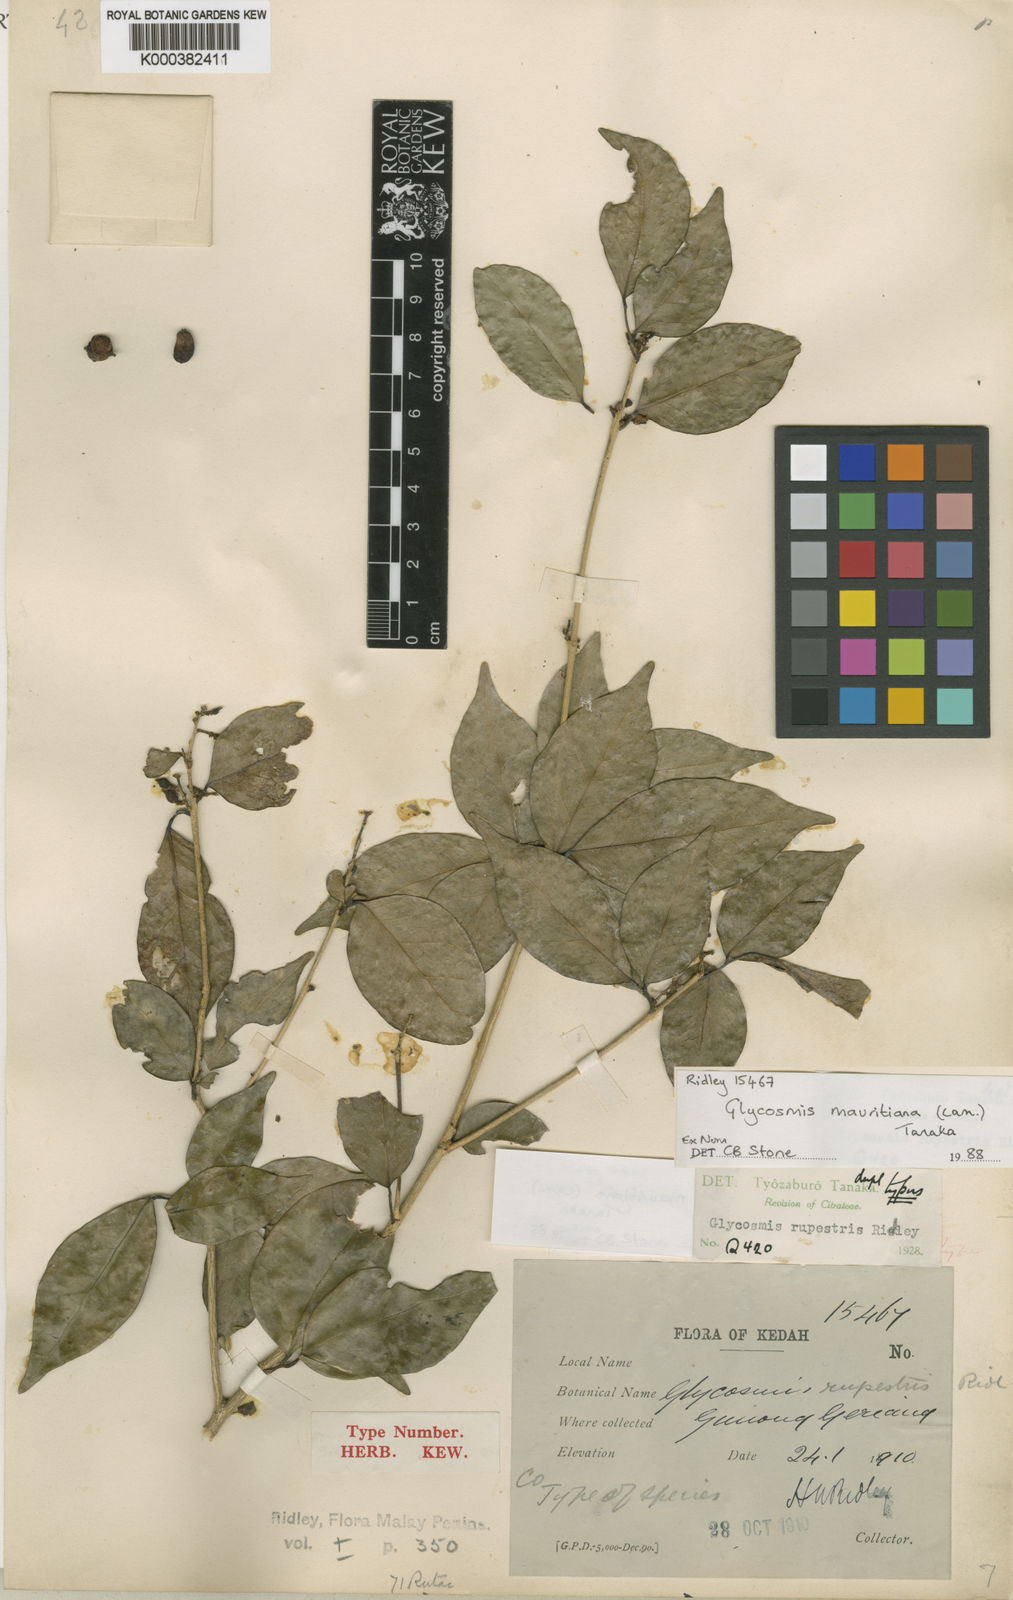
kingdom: Plantae
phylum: Tracheophyta
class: Magnoliopsida
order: Sapindales
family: Rutaceae
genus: Glycosmis
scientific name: Glycosmis mauritiana
